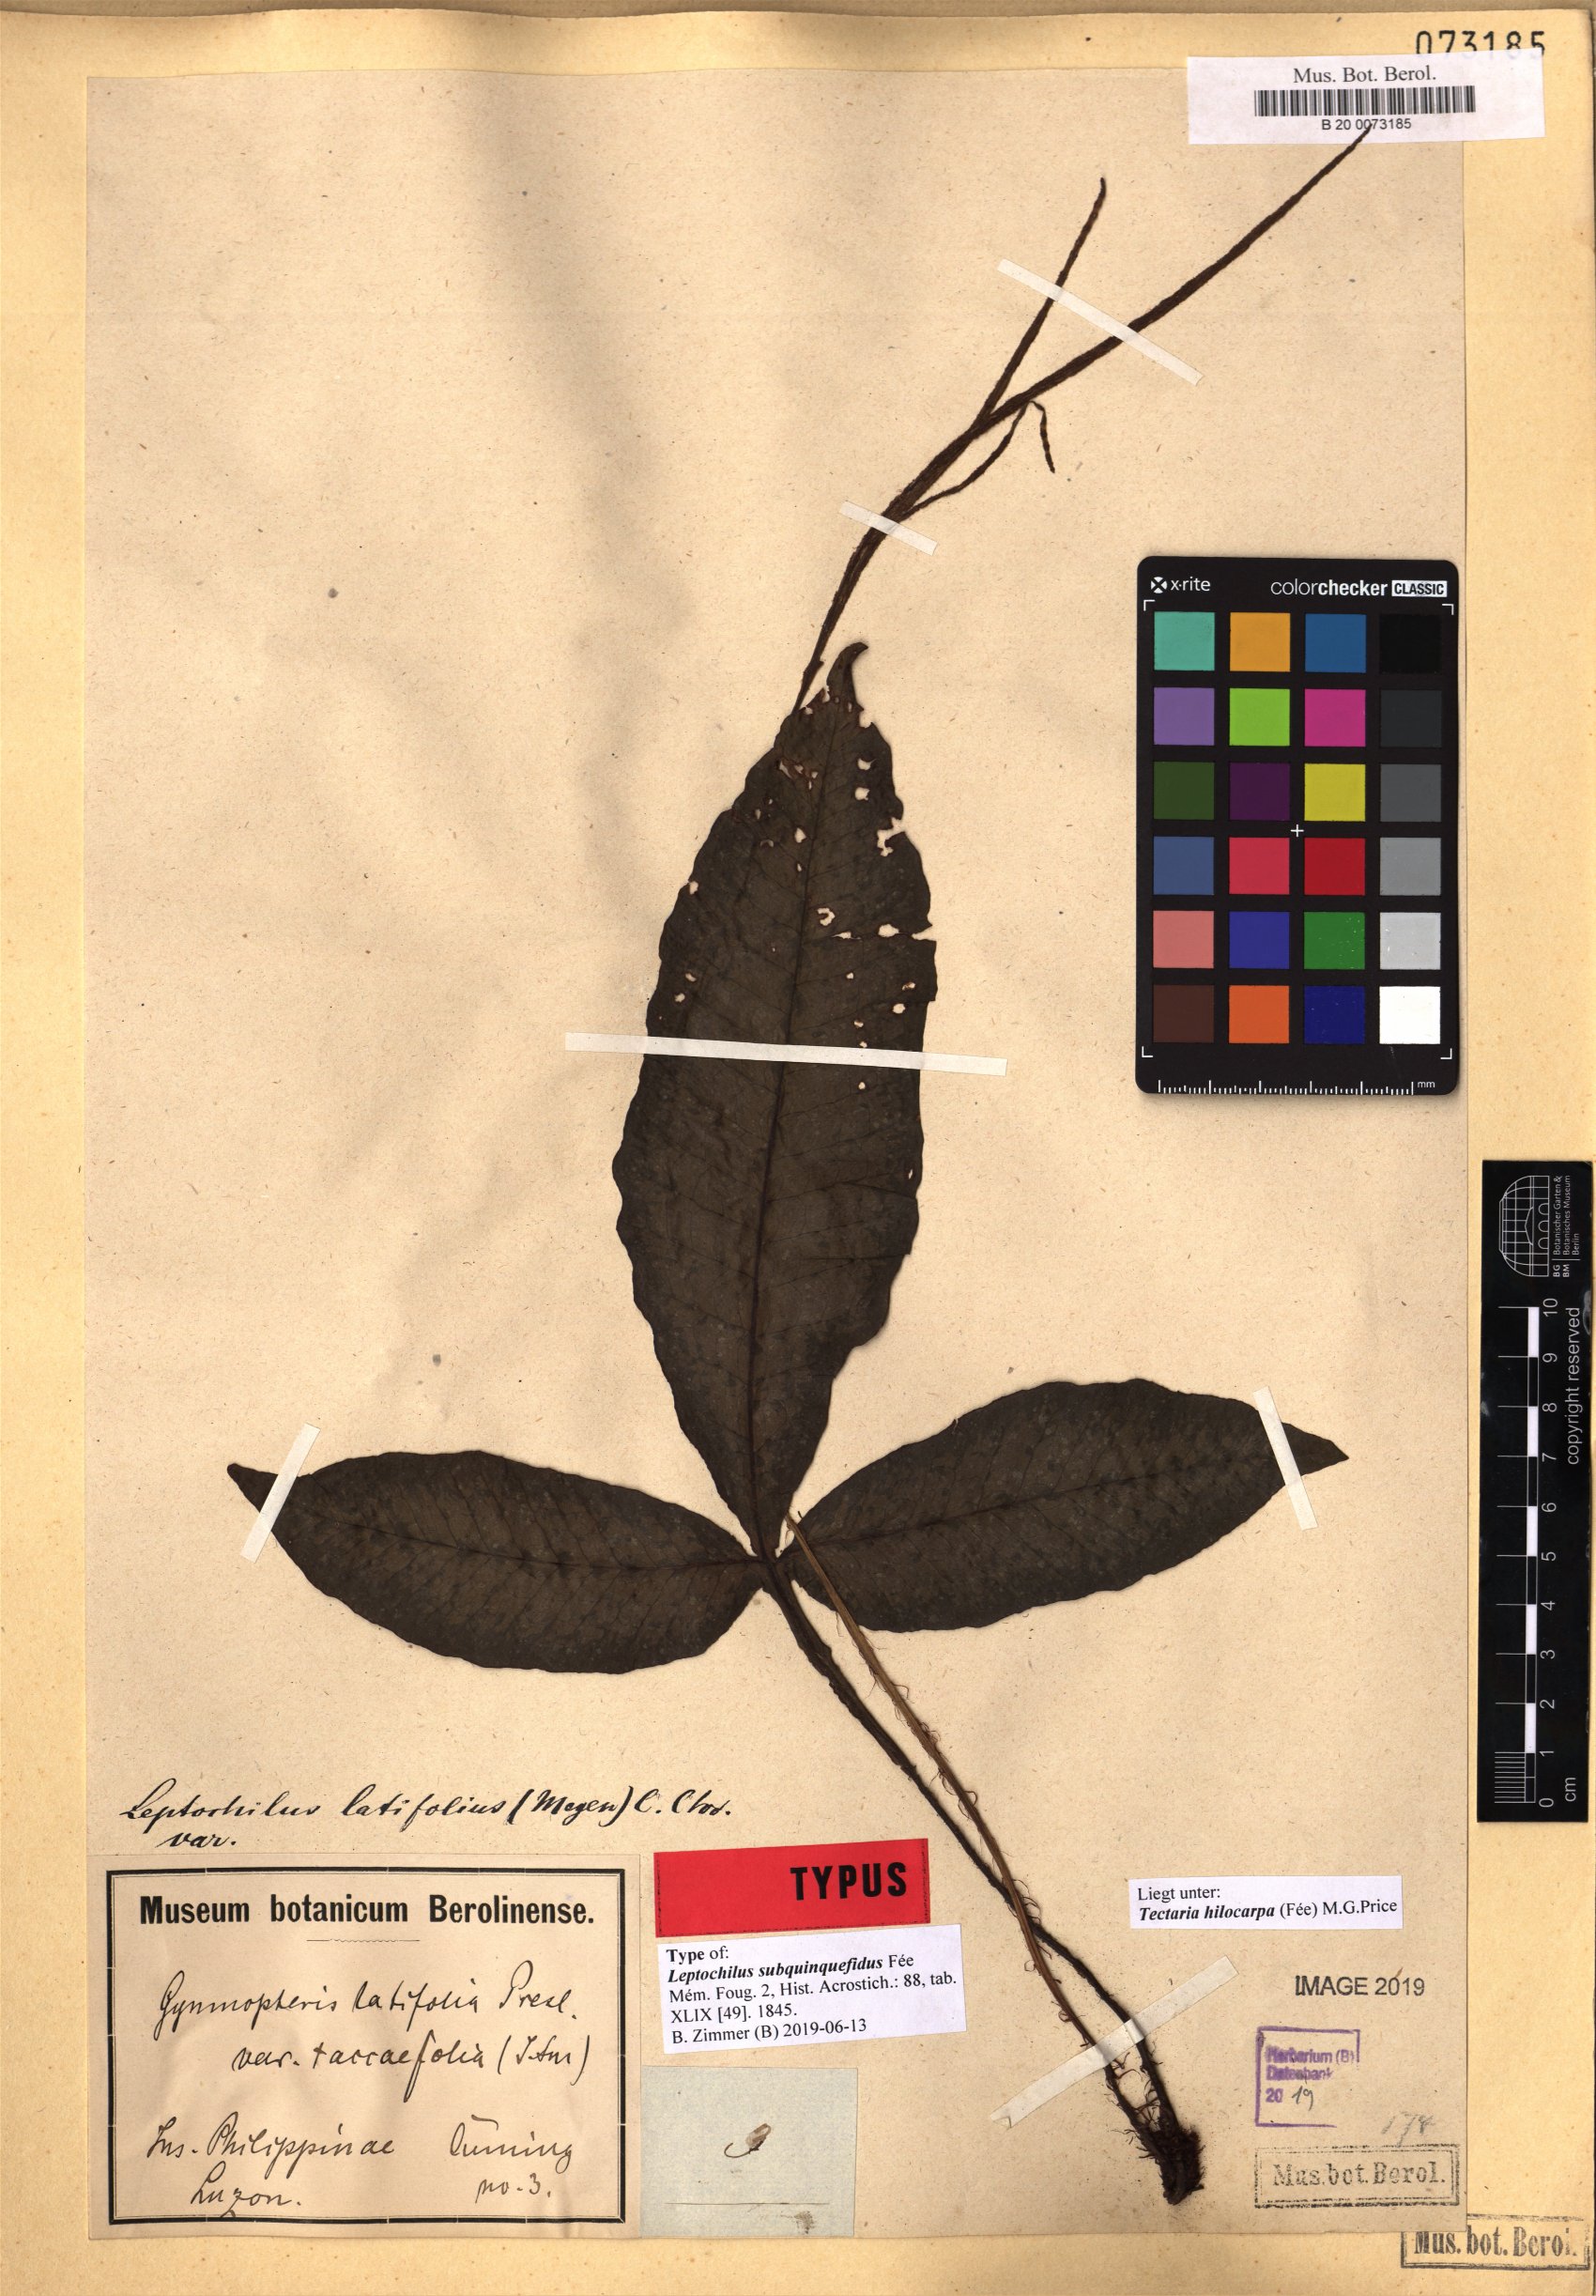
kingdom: Plantae
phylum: Tracheophyta
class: Polypodiopsida
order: Polypodiales
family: Tectariaceae
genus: Tectaria
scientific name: Tectaria hilocarpa
